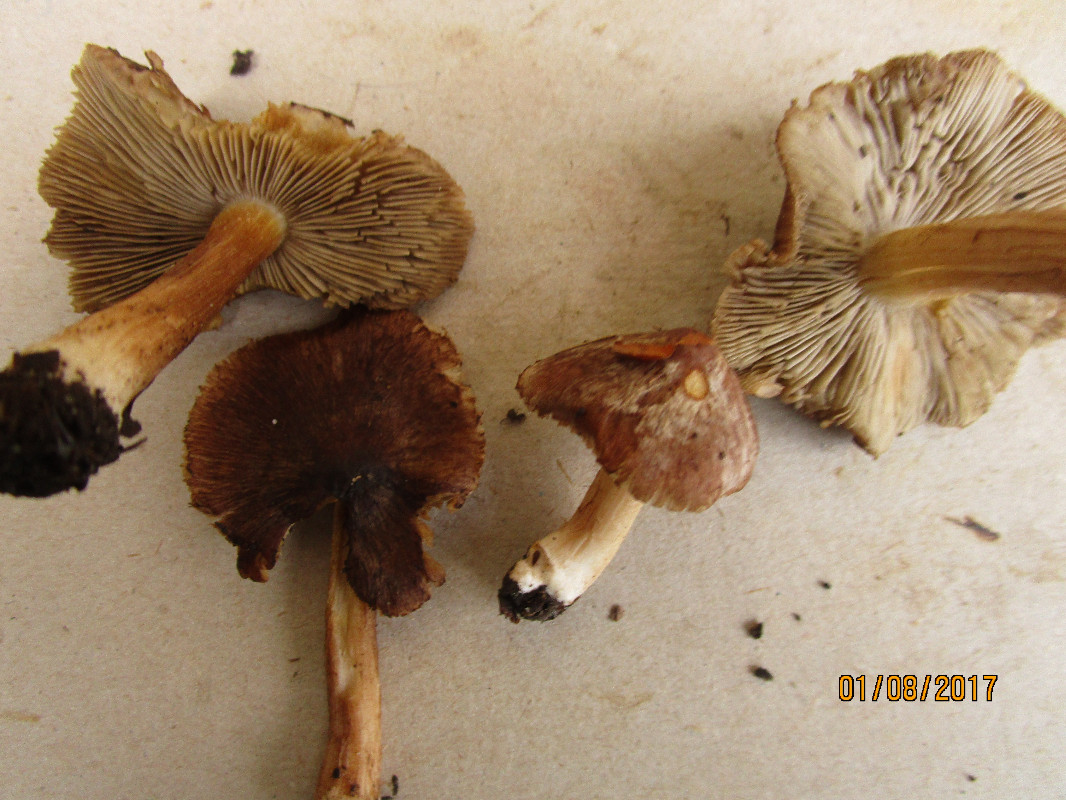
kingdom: Fungi
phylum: Basidiomycota
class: Agaricomycetes
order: Agaricales
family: Inocybaceae
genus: Inocybe
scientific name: Inocybe
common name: trævlhat
